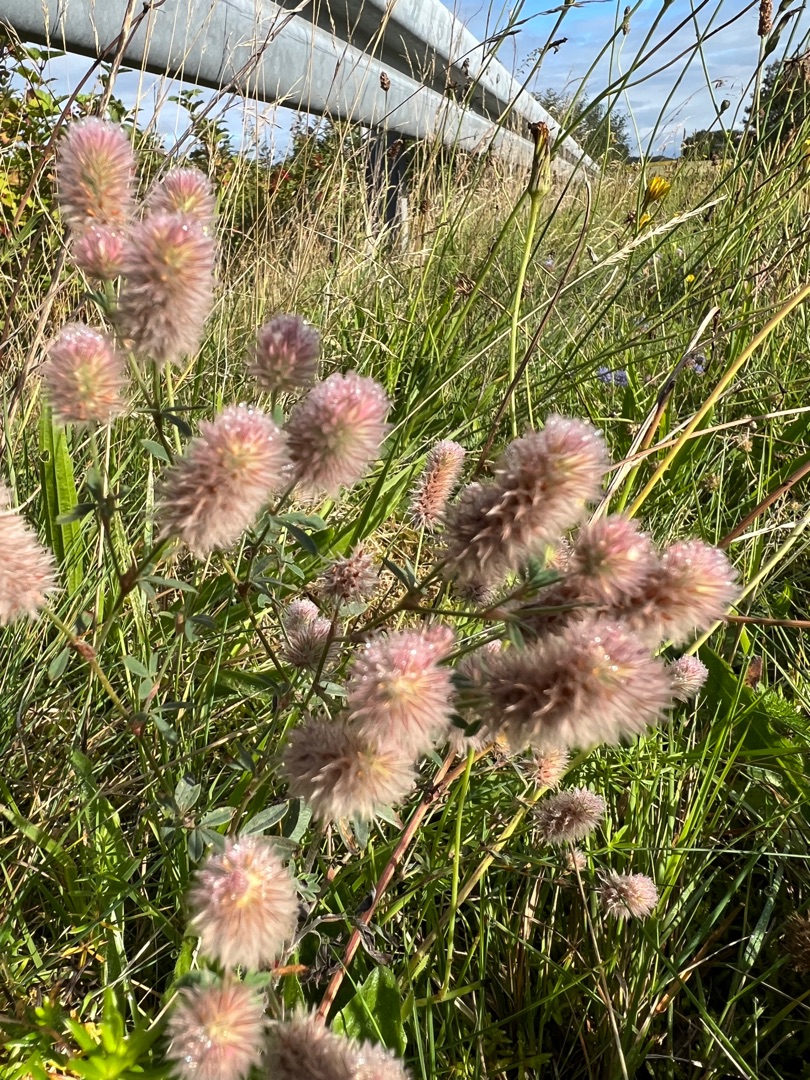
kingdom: Plantae
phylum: Tracheophyta
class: Magnoliopsida
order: Fabales
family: Fabaceae
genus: Trifolium
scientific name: Trifolium arvense
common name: Hare-kløver
